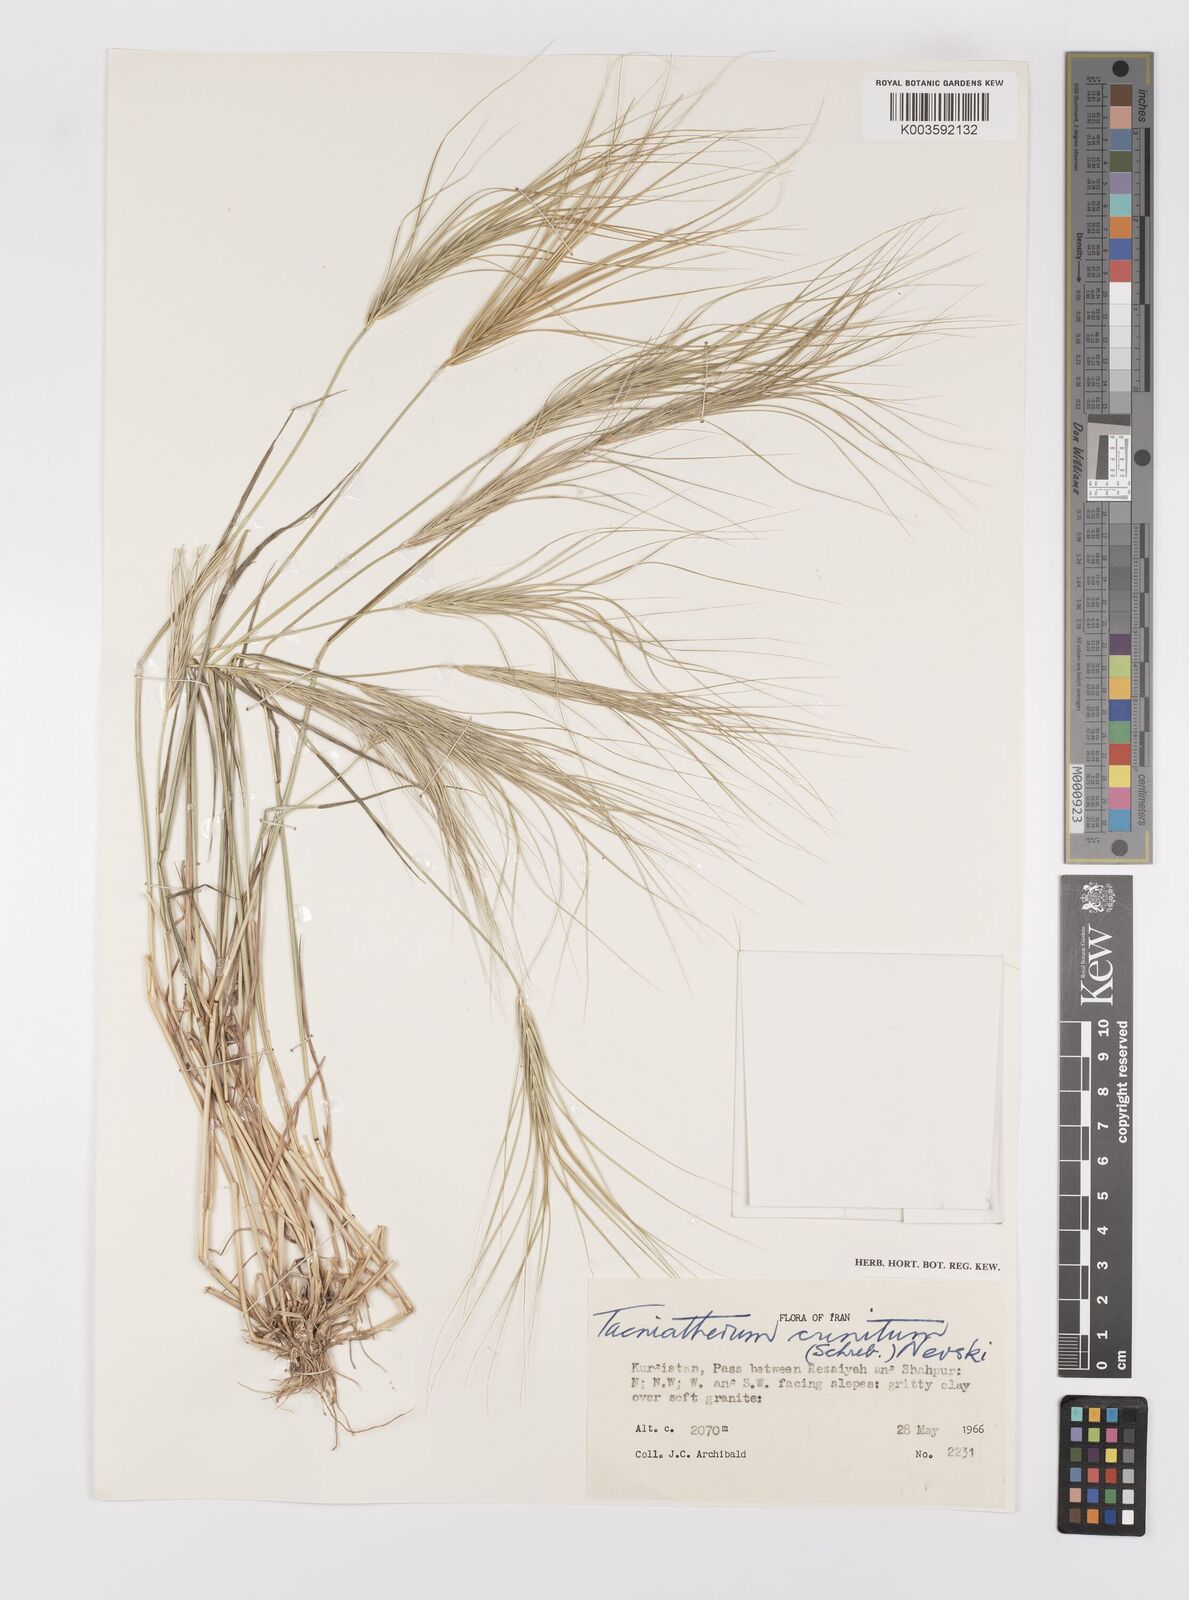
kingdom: Plantae
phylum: Tracheophyta
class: Liliopsida
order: Poales
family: Poaceae
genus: Taeniatherum
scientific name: Taeniatherum caput-medusae
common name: Medusahead
